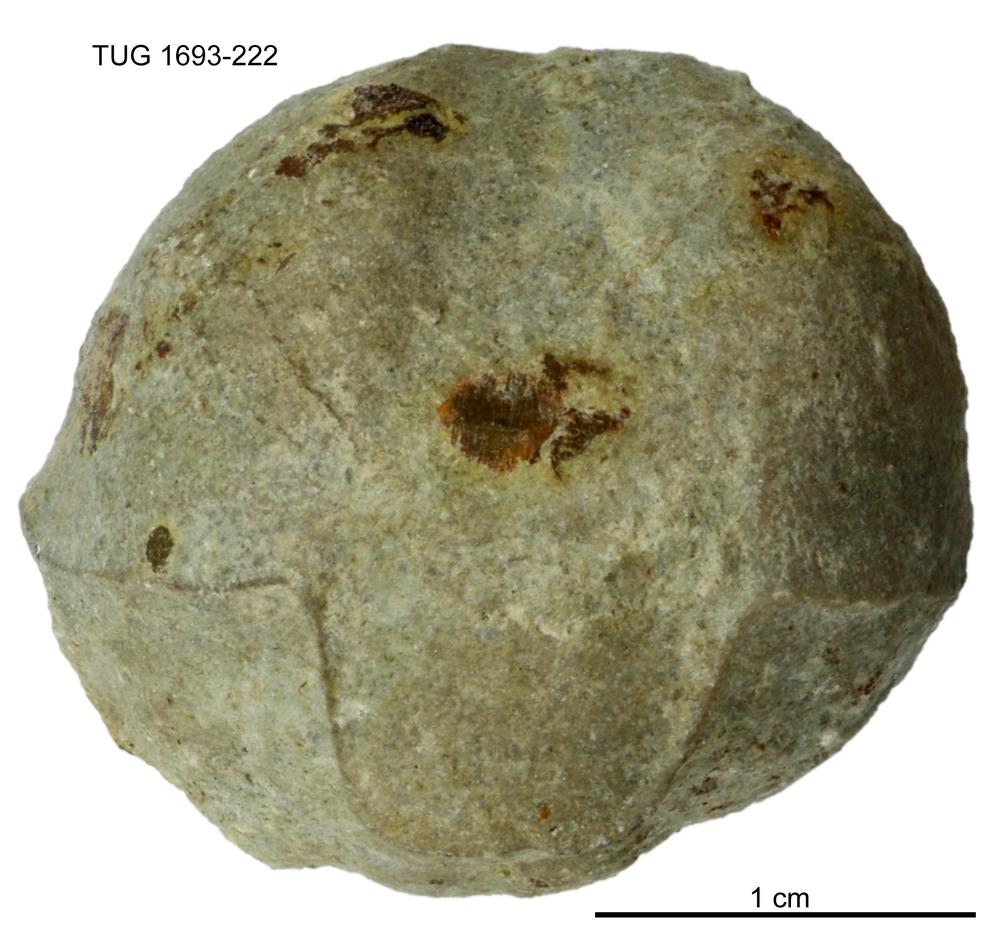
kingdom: Animalia
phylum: Brachiopoda
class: Rhynchonellata
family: Lissatrypidae
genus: Meifodia
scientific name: Meifodia subundata
